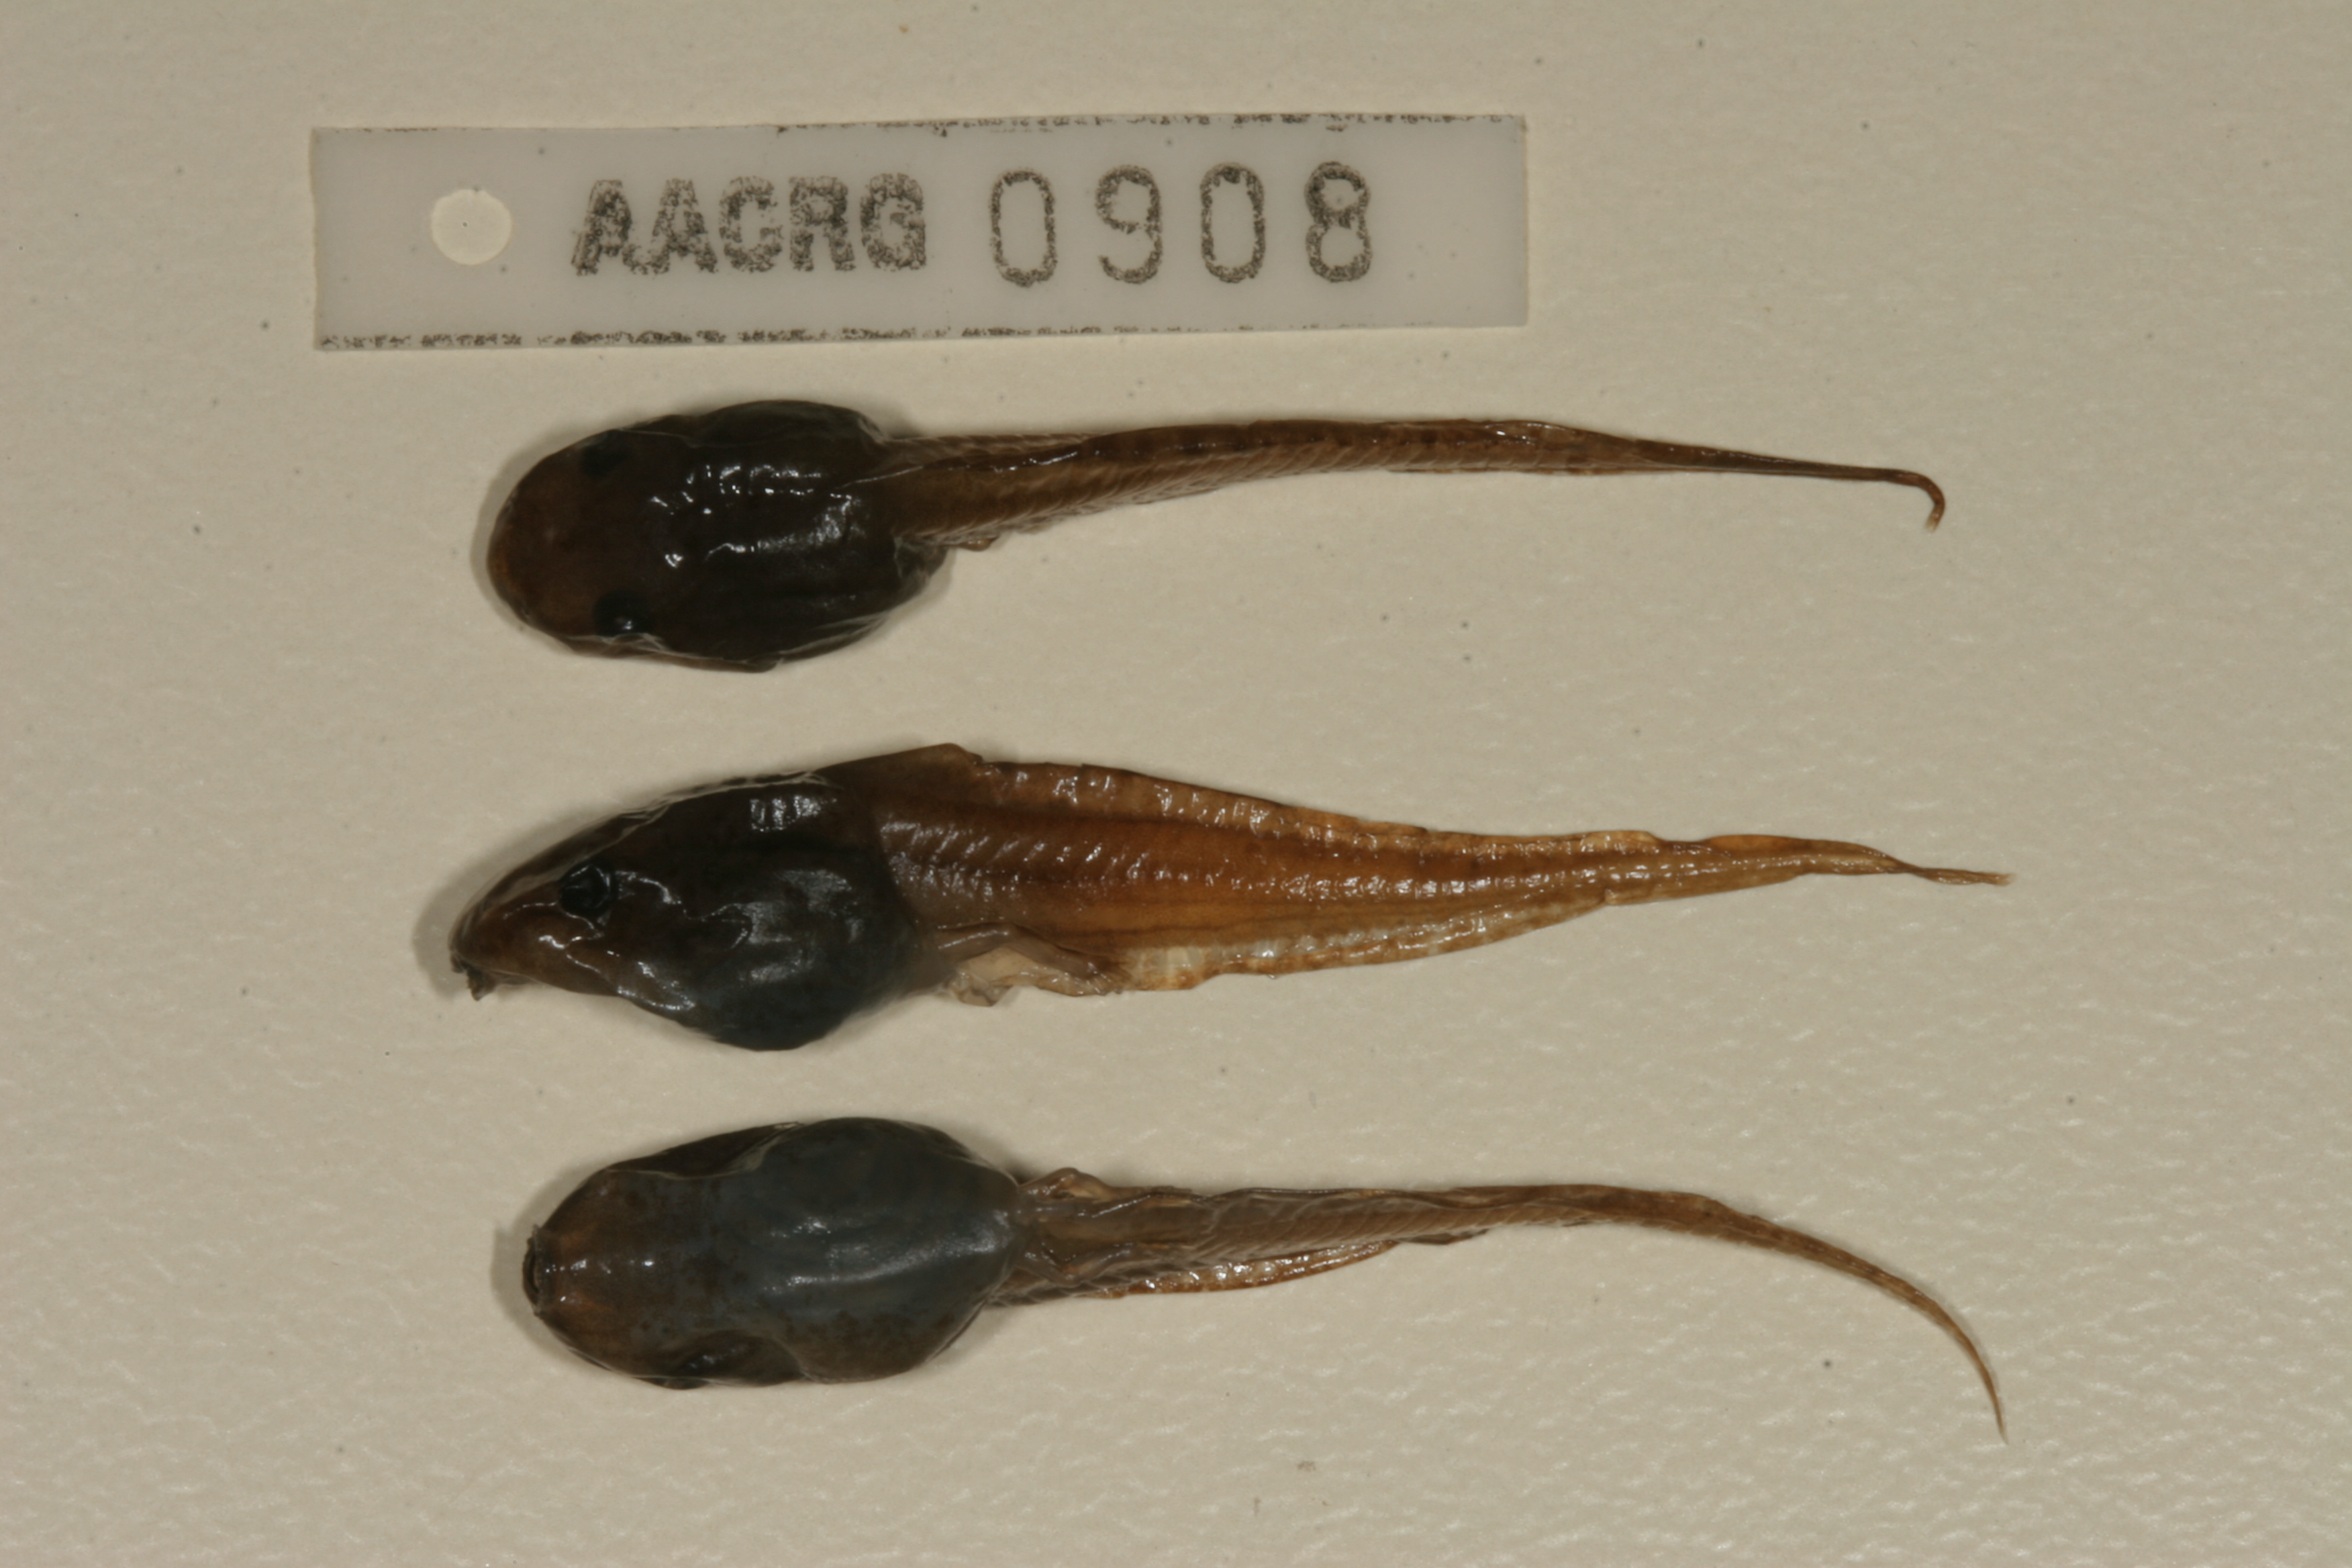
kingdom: Animalia
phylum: Chordata
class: Amphibia
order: Anura
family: Hyperoliidae
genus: Hyperolius
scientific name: Hyperolius marmoratus
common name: Painted reed frog
